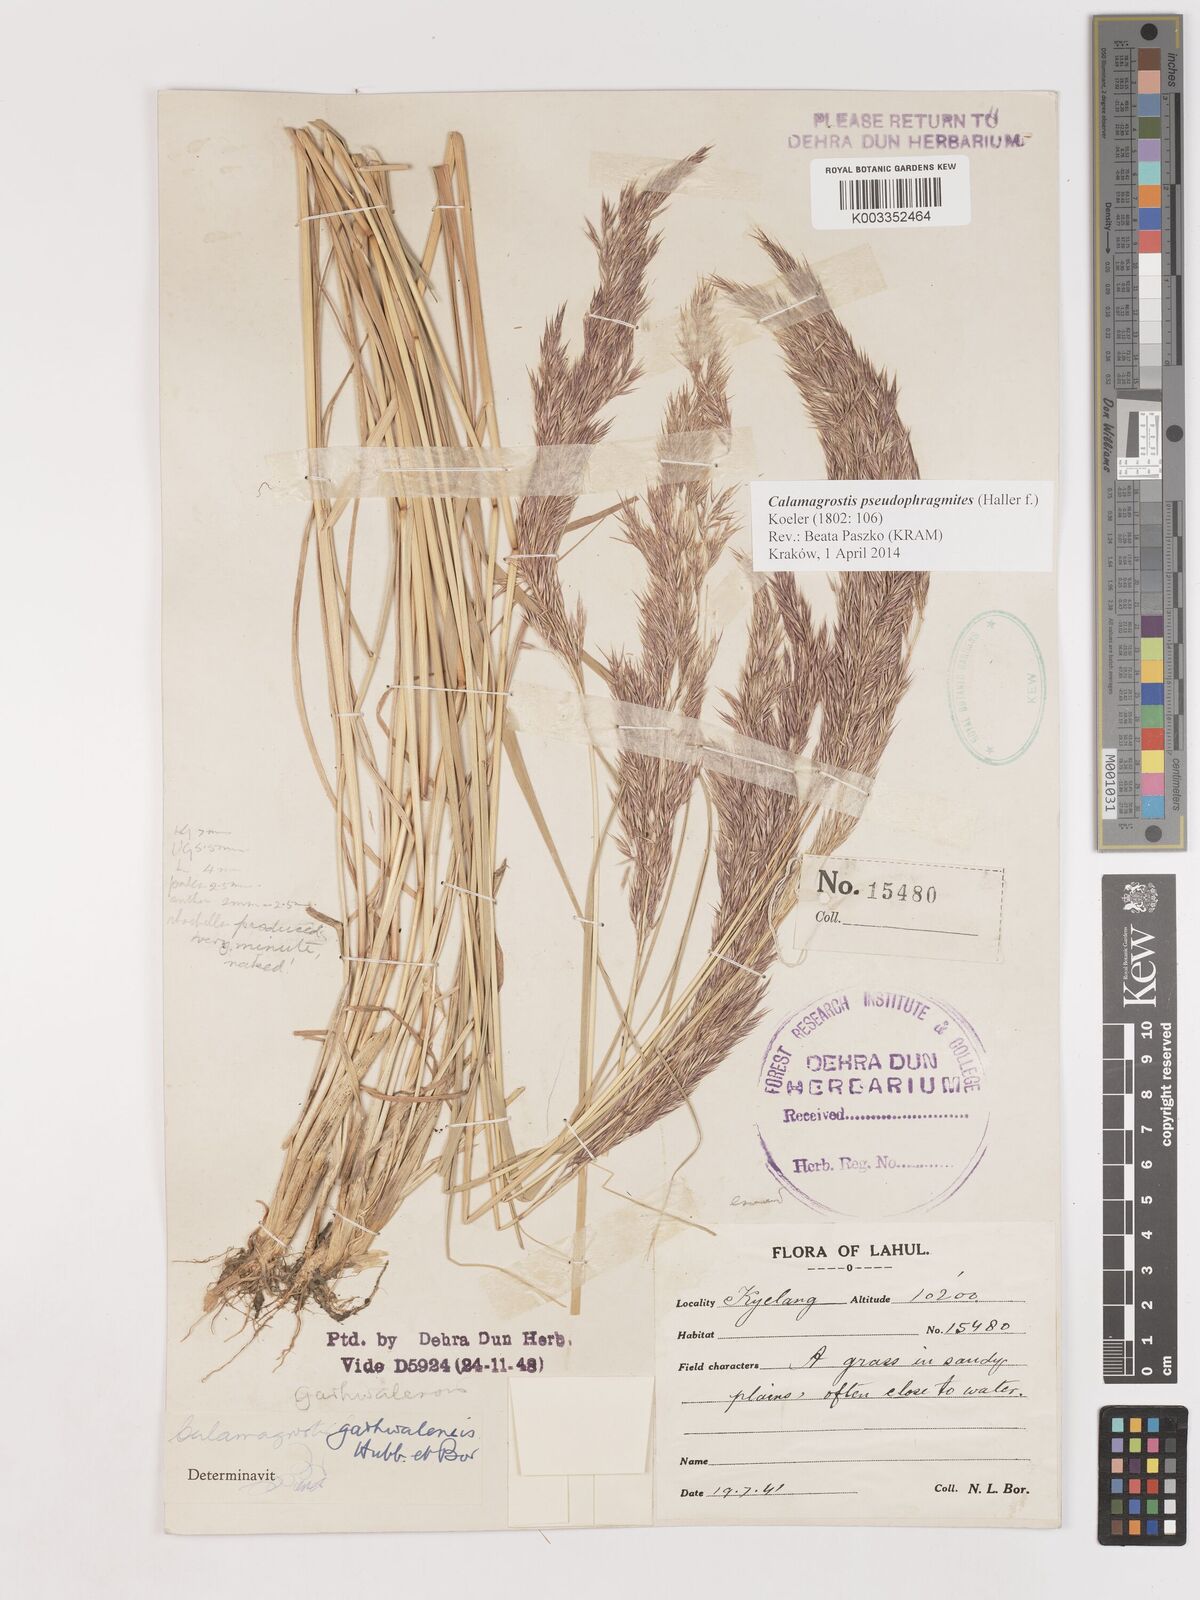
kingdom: Plantae
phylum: Tracheophyta
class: Liliopsida
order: Poales
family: Poaceae
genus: Calamagrostis
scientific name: Calamagrostis pseudophragmites
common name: Coastal small-reed
